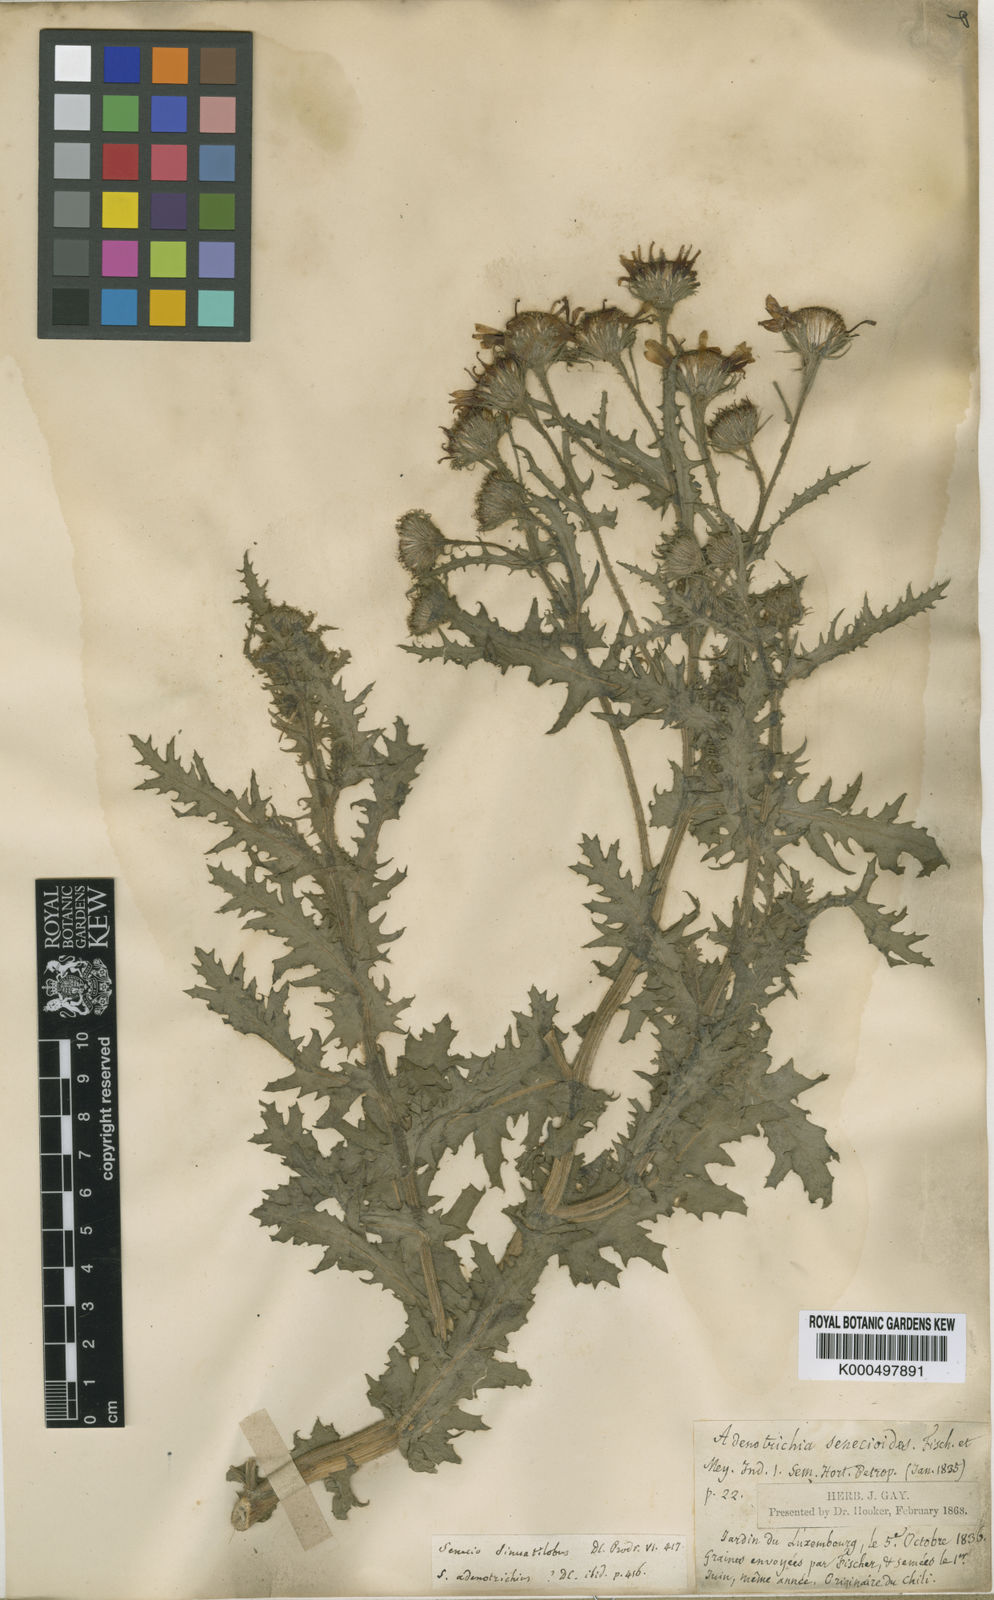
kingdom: Plantae
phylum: Tracheophyta
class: Magnoliopsida
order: Asterales
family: Asteraceae
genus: Senecio
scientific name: Senecio adenotrichius
